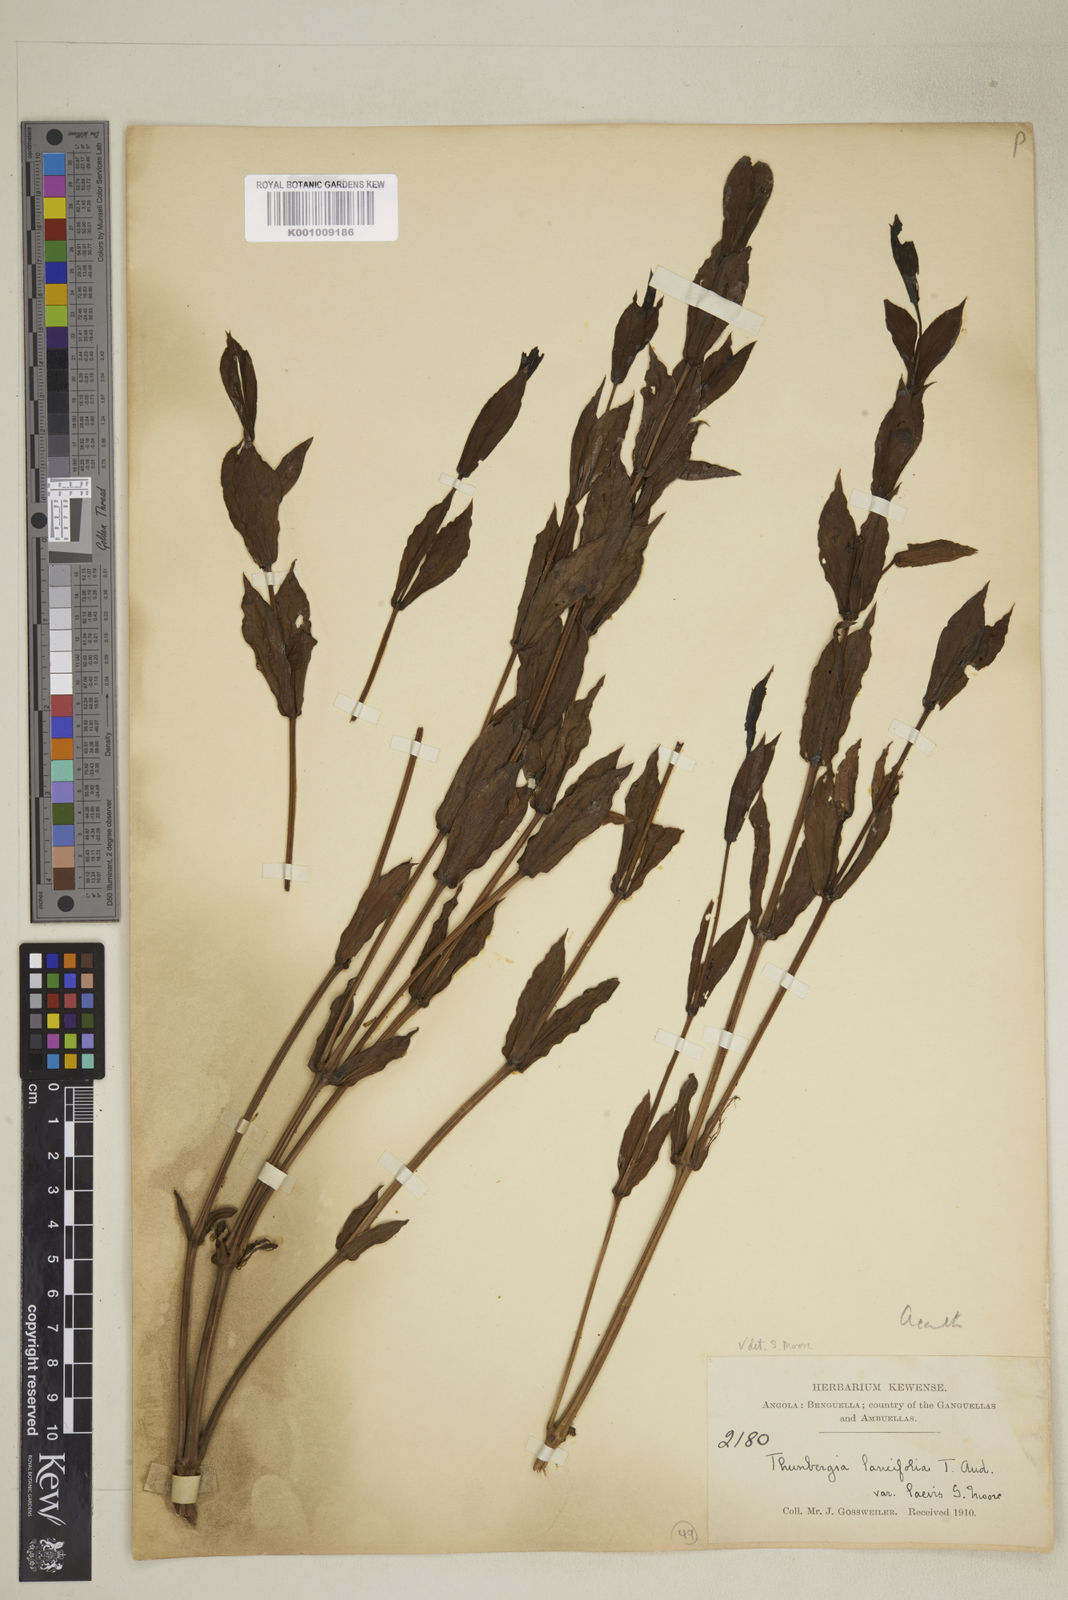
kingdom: Plantae
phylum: Tracheophyta
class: Magnoliopsida
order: Lamiales
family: Acanthaceae
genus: Thunbergia
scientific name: Thunbergia lancifolia
